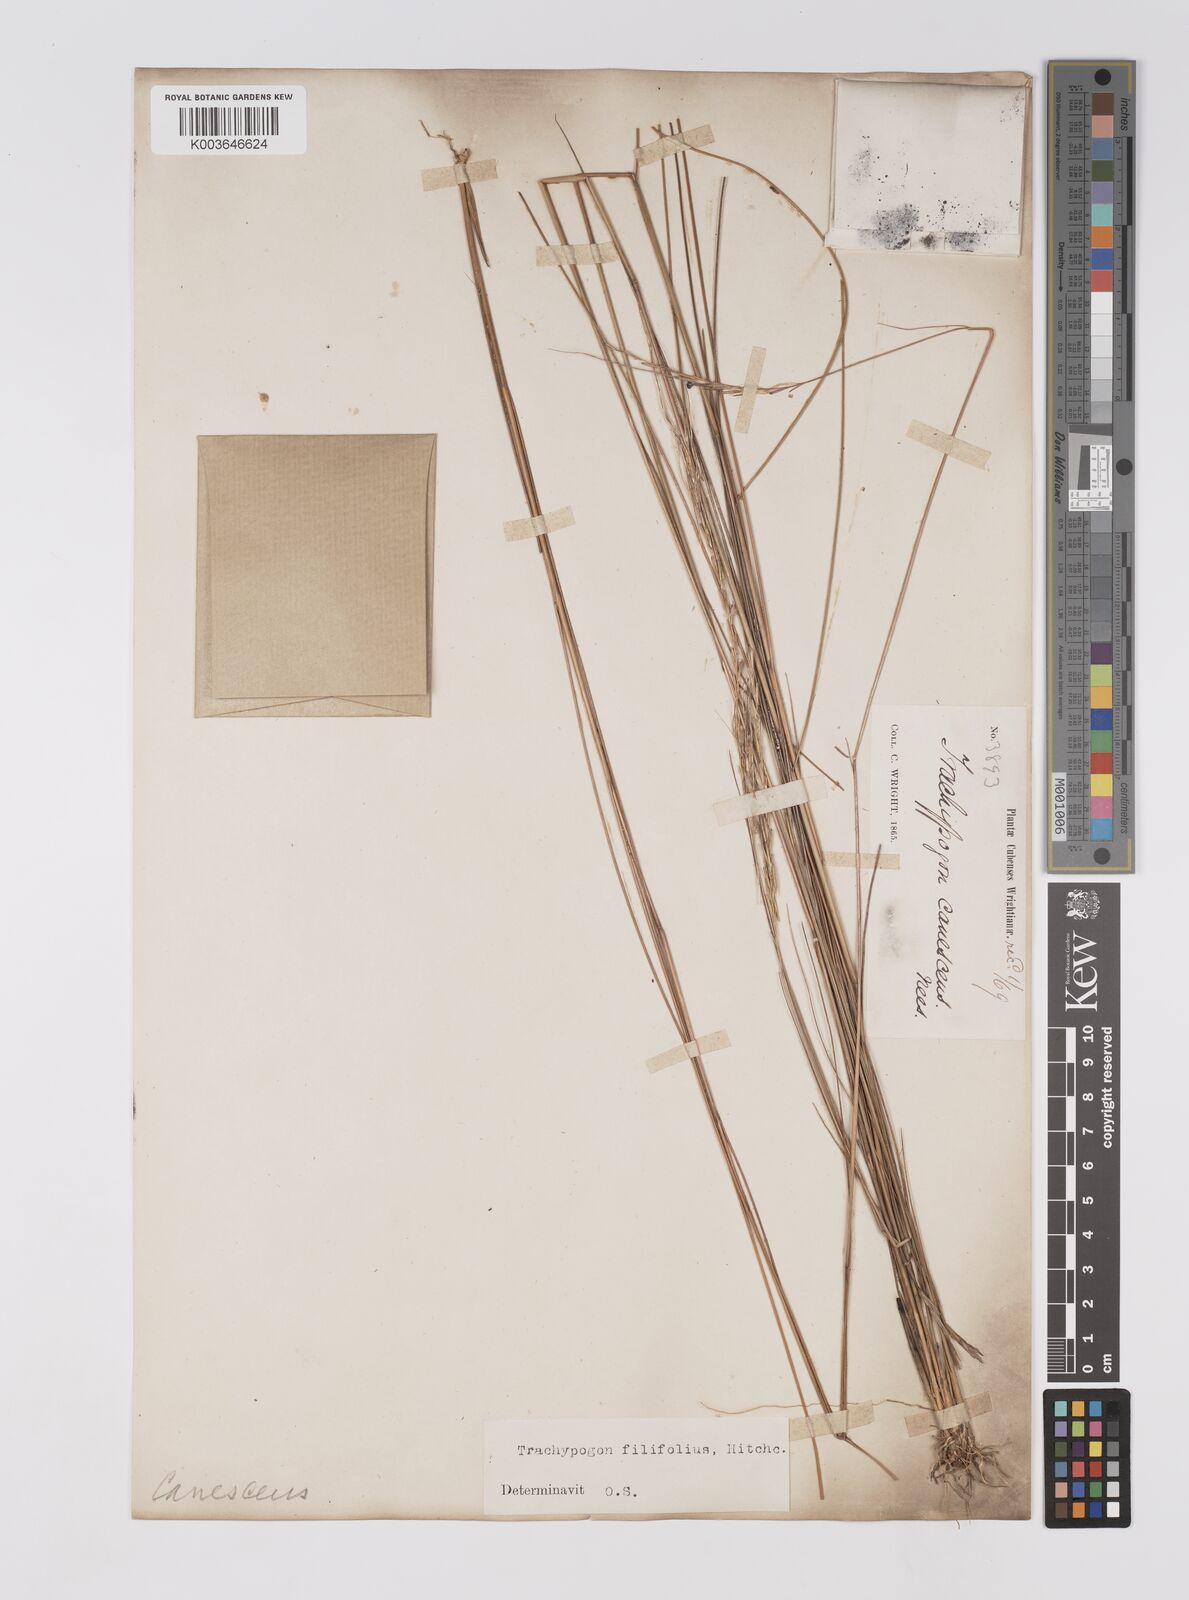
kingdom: Plantae
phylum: Tracheophyta
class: Liliopsida
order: Poales
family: Poaceae
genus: Trachypogon
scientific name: Trachypogon macroglossus
